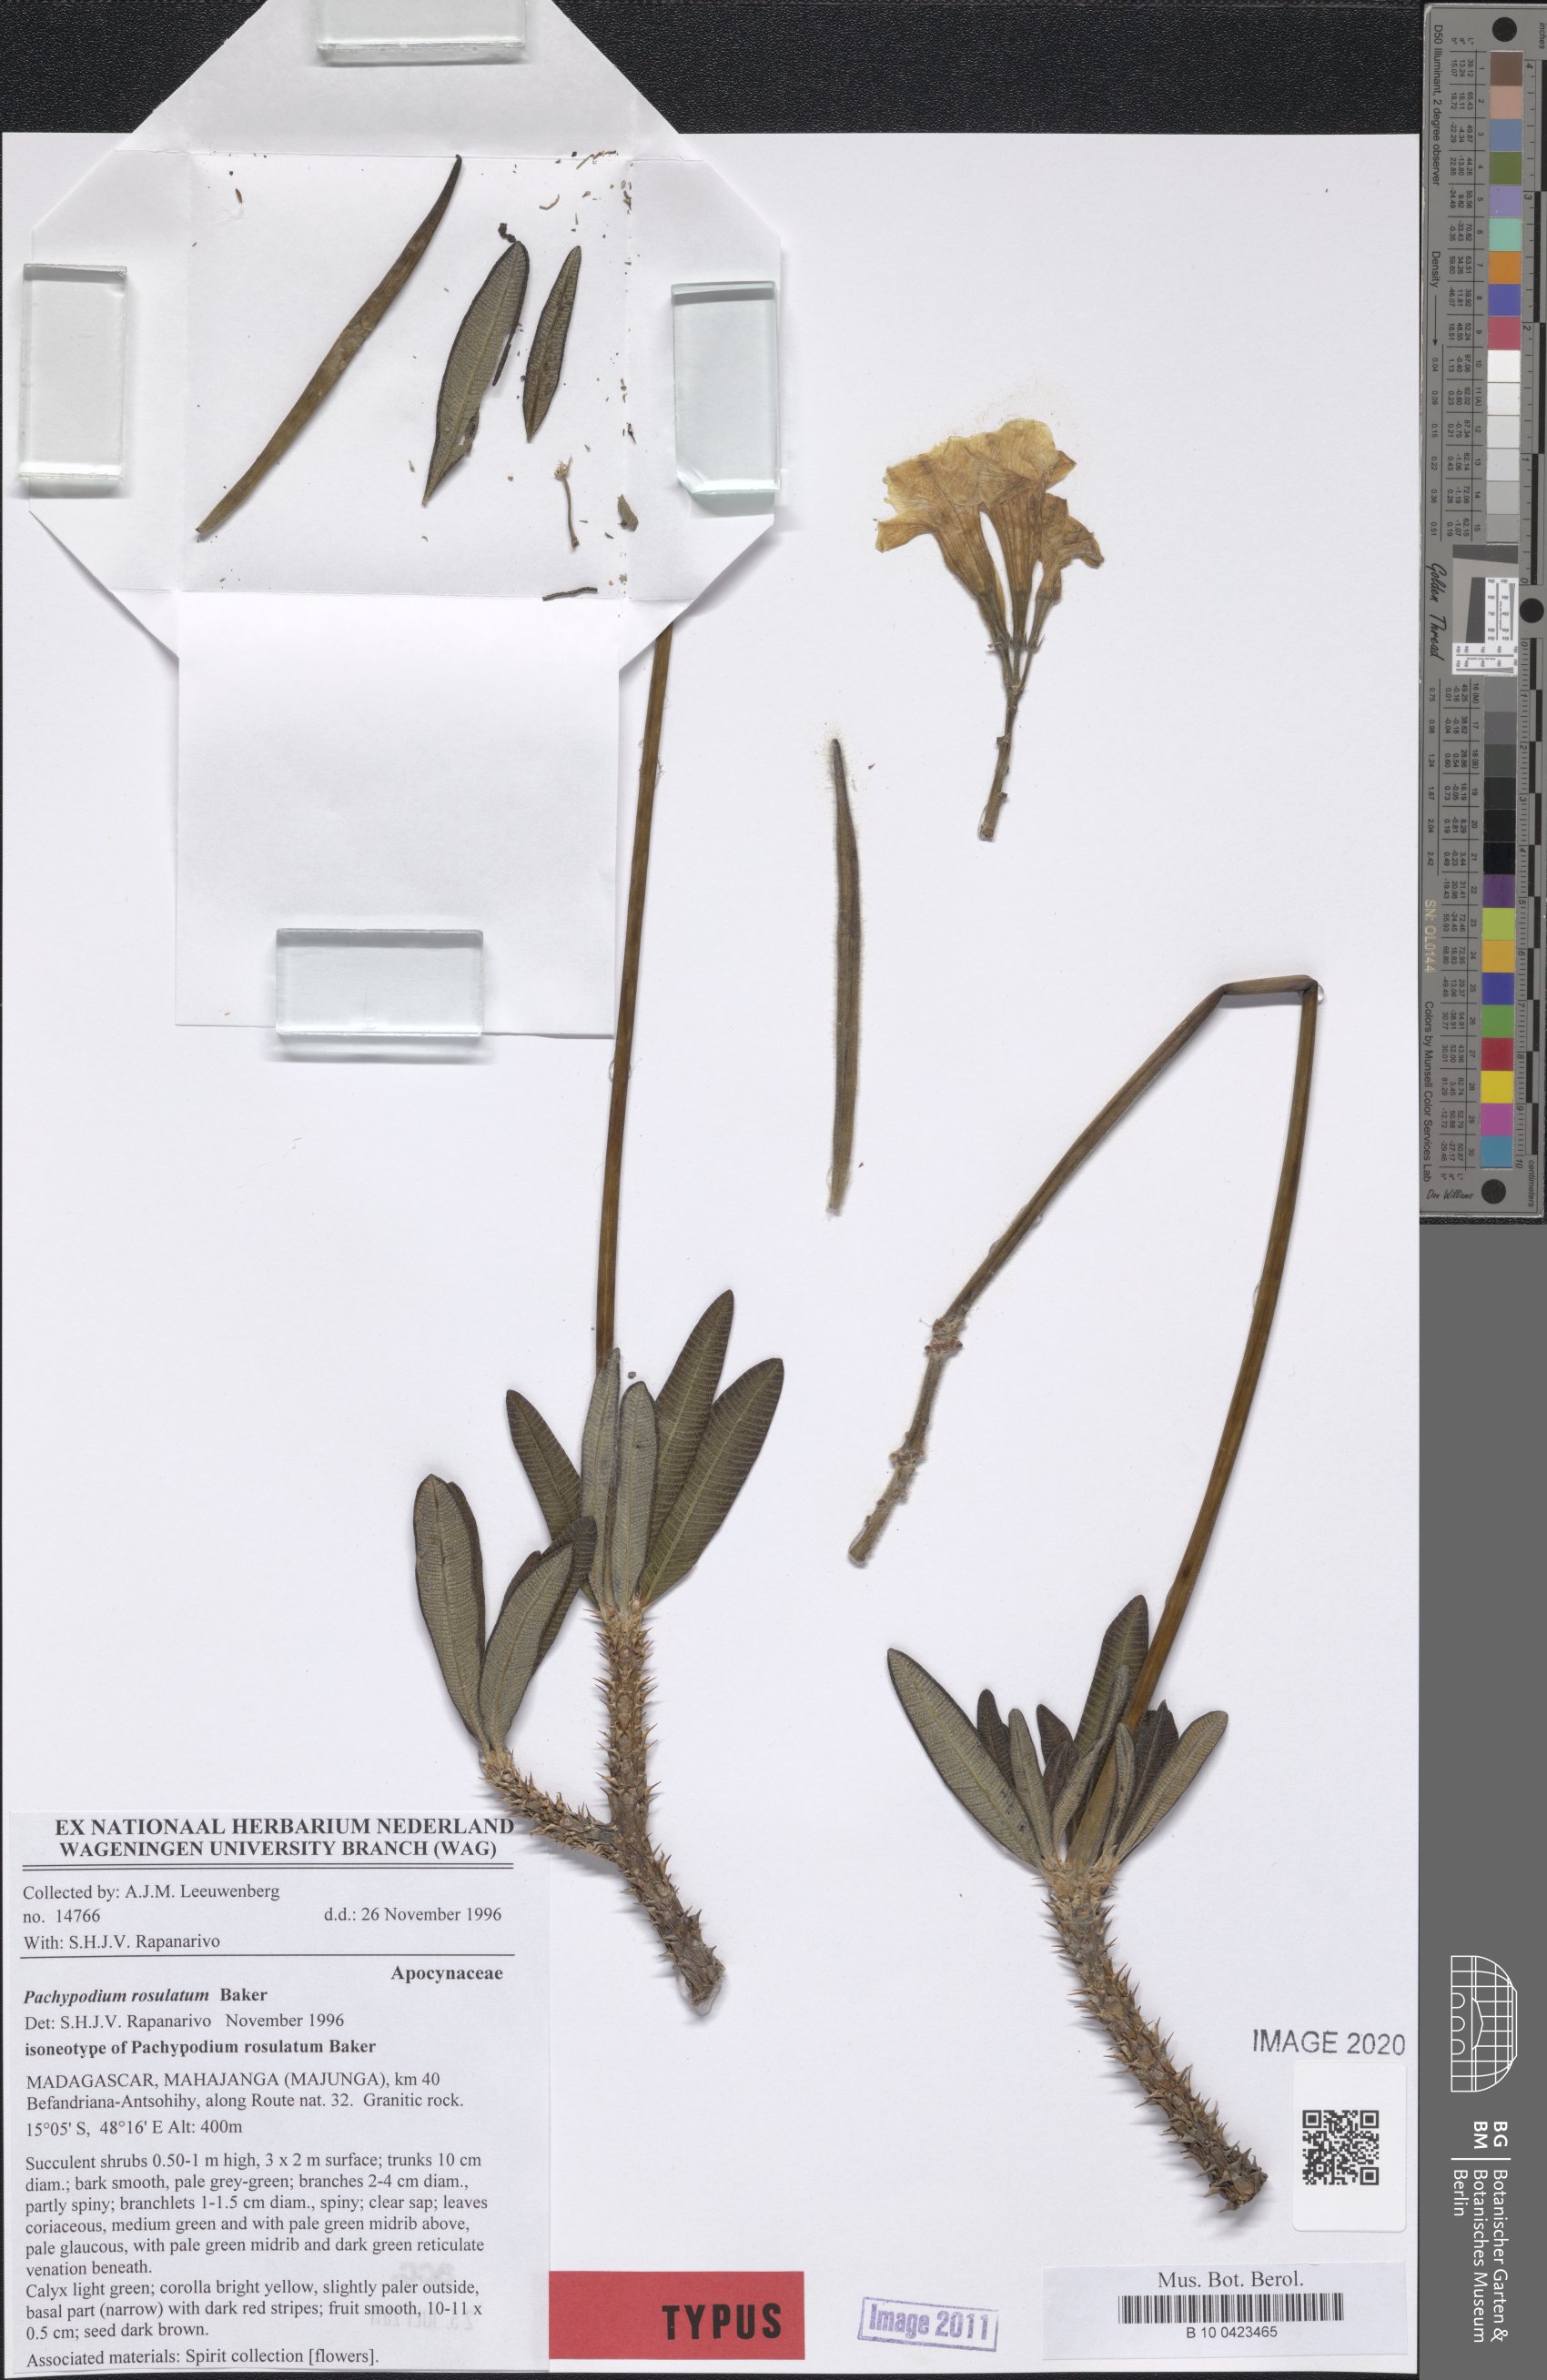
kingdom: Plantae
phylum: Tracheophyta
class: Magnoliopsida
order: Gentianales
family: Apocynaceae
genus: Pachypodium
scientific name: Pachypodium rosulatum
